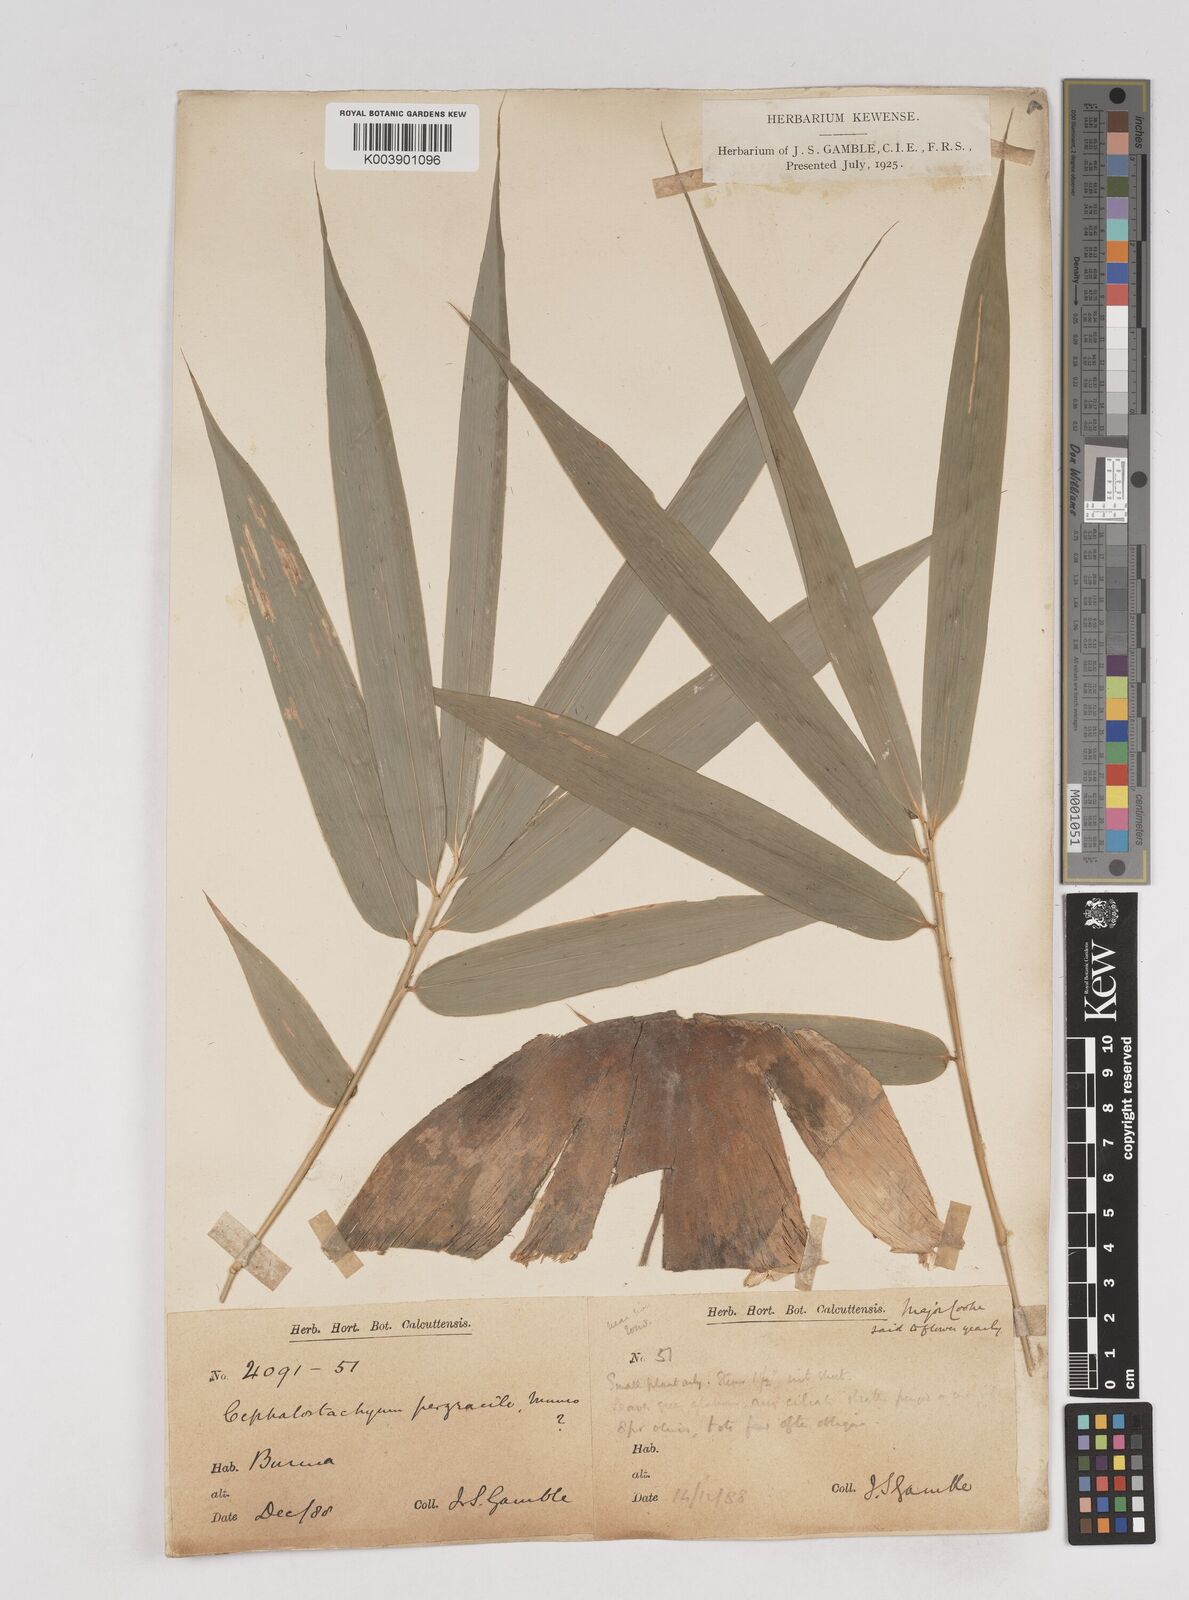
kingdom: Plantae
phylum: Tracheophyta
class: Liliopsida
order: Poales
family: Poaceae
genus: Schizostachyum
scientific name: Schizostachyum pergracile
